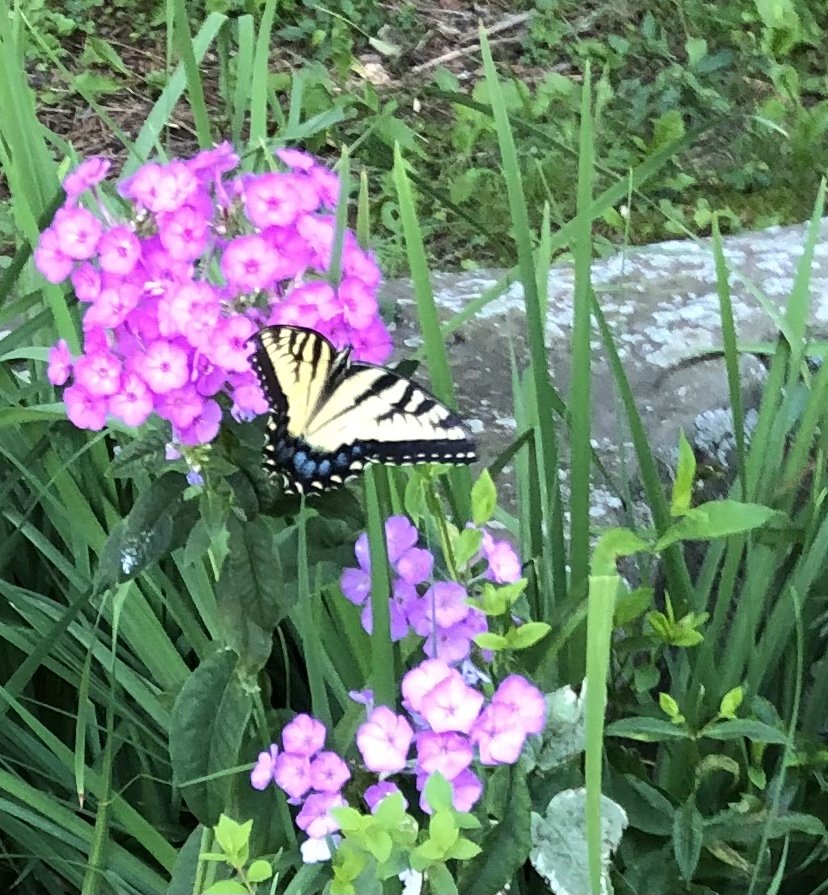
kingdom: Animalia
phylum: Arthropoda
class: Insecta
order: Lepidoptera
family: Papilionidae
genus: Pterourus
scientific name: Pterourus glaucus
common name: Eastern Tiger Swallowtail
